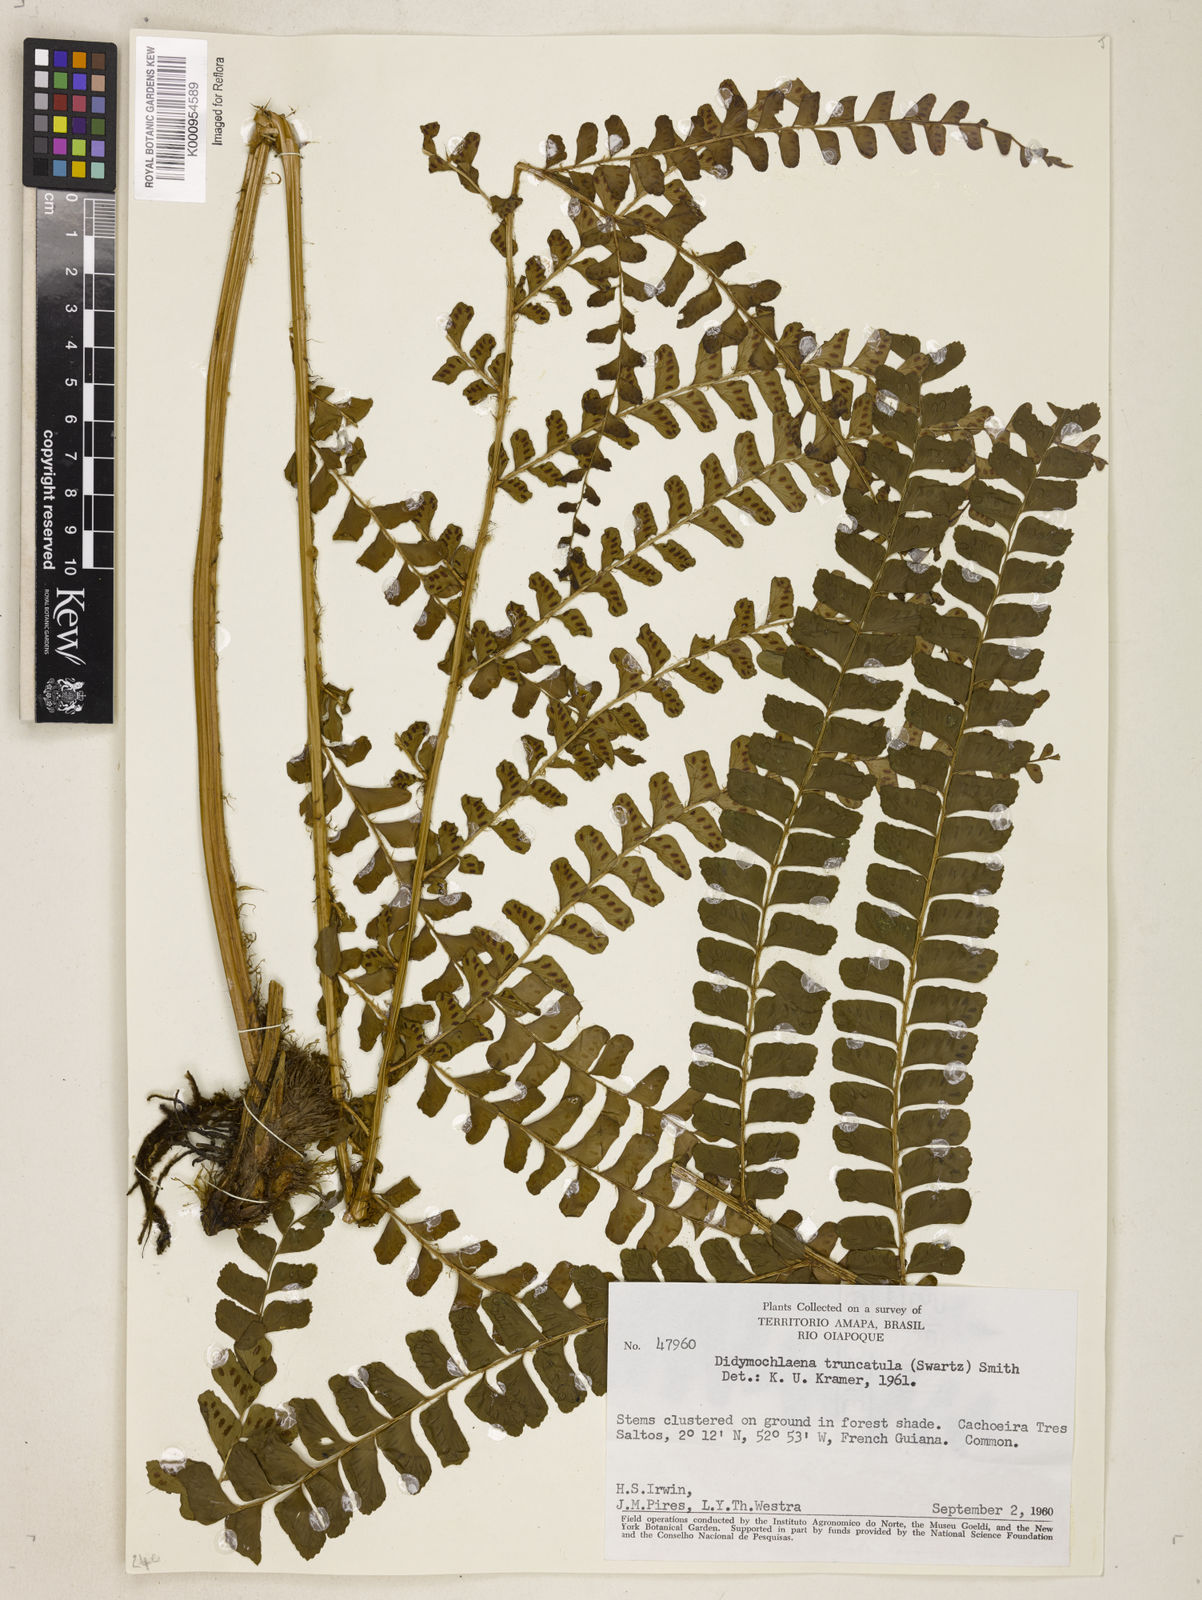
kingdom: Plantae
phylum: Tracheophyta
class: Polypodiopsida
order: Polypodiales
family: Didymochlaenaceae
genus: Didymochlaena
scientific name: Didymochlaena truncatula
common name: Mahogany fern
